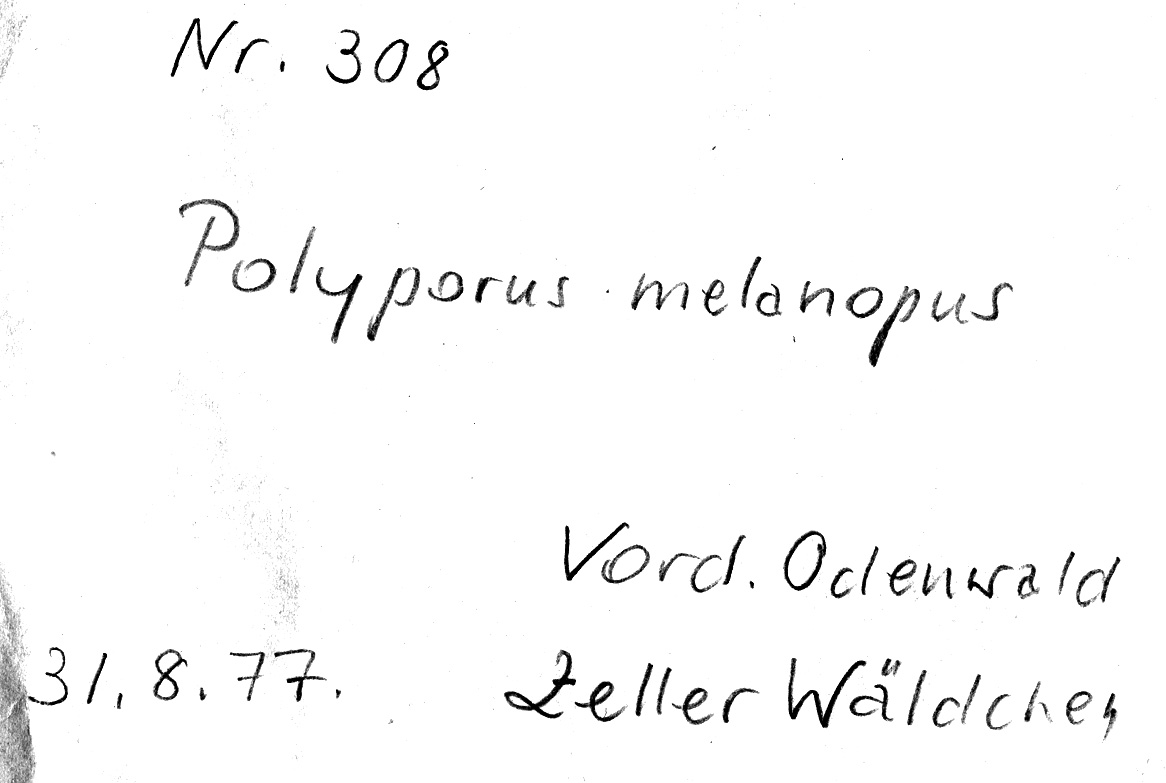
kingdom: Fungi
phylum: Basidiomycota
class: Agaricomycetes
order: Polyporales
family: Polyporaceae
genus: Picipes
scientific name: Picipes melanopus
